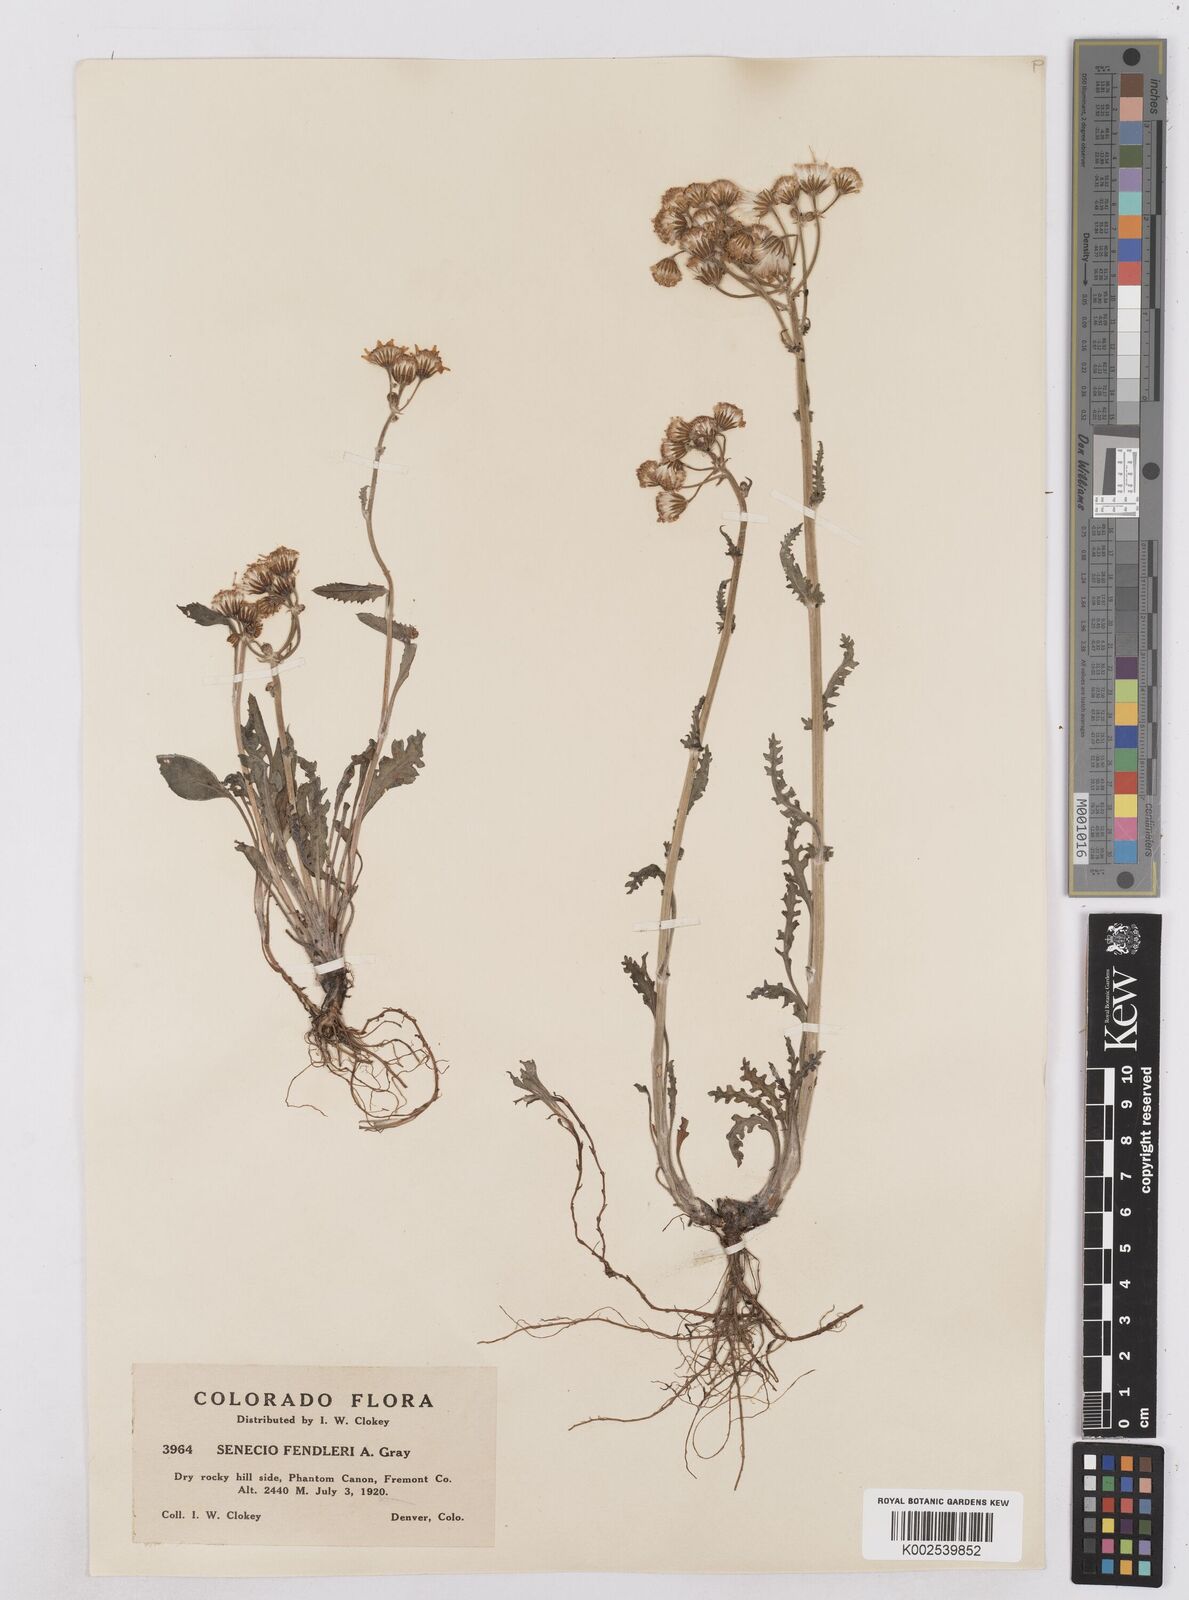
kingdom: Plantae
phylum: Tracheophyta
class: Magnoliopsida
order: Asterales
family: Asteraceae
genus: Packera
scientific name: Packera fendleri
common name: Notch-leaf butterweed
